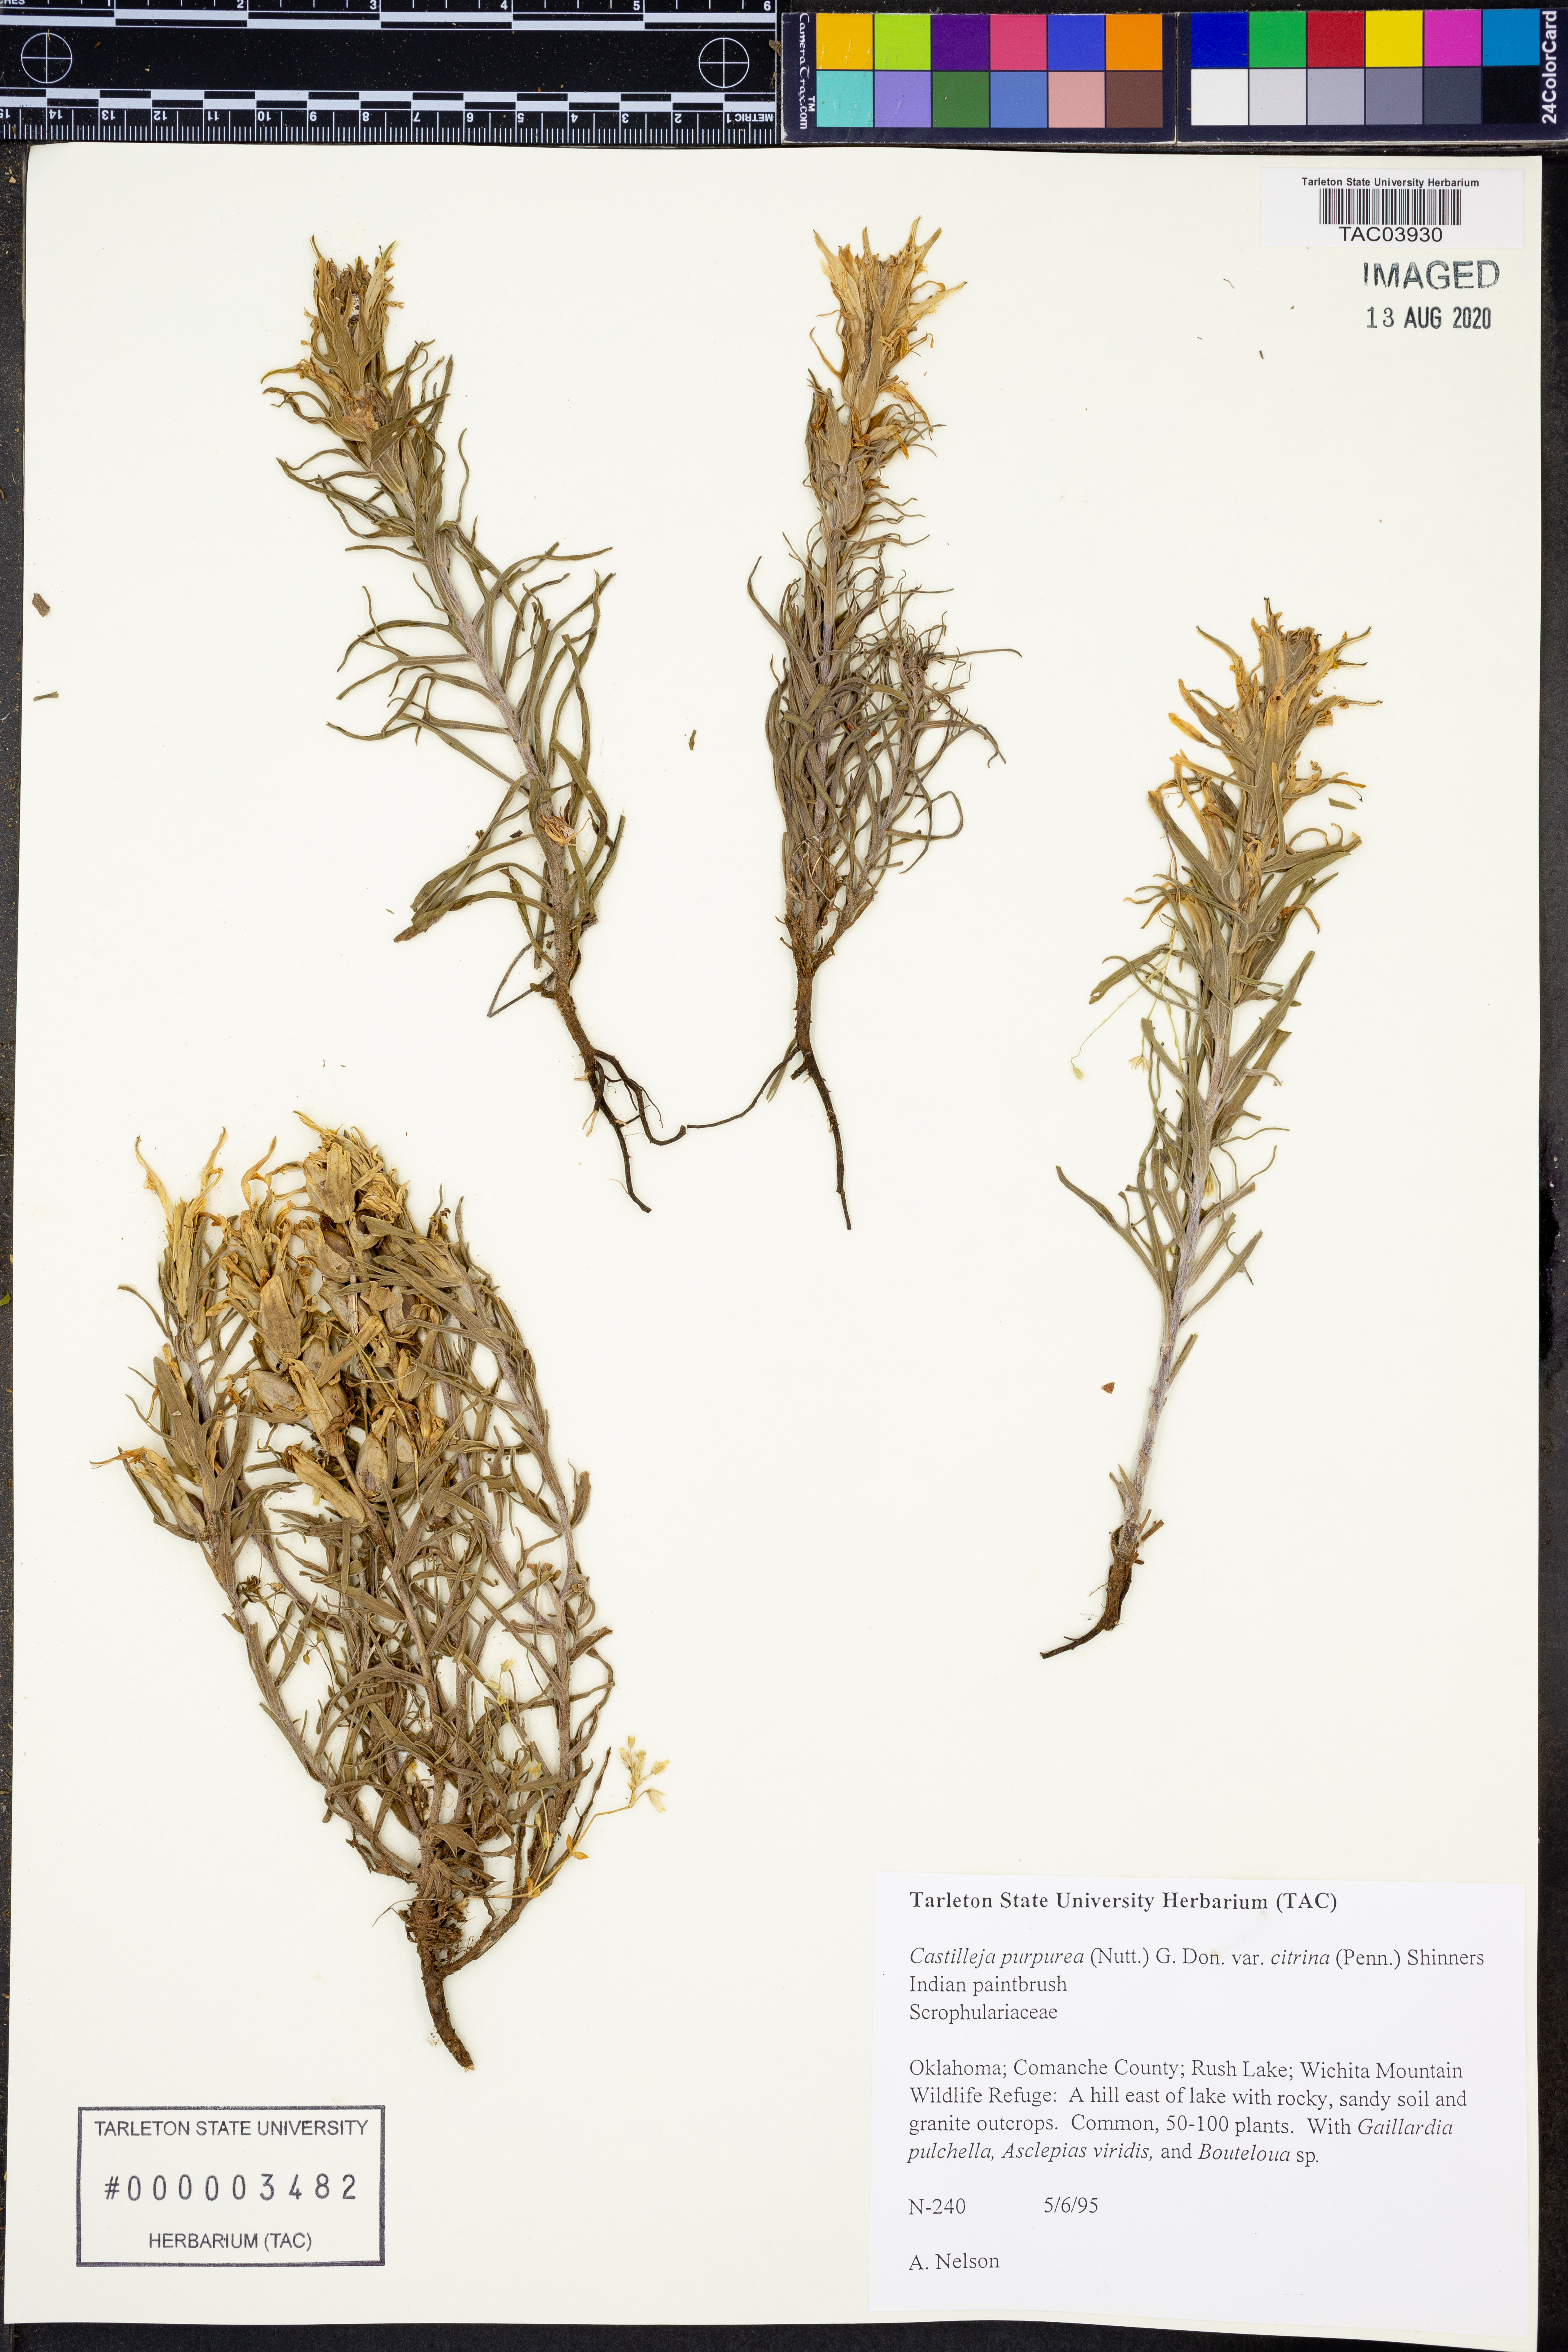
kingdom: Plantae
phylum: Tracheophyta
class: Magnoliopsida
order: Lamiales
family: Orobanchaceae
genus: Castilleja
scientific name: Castilleja citrina
